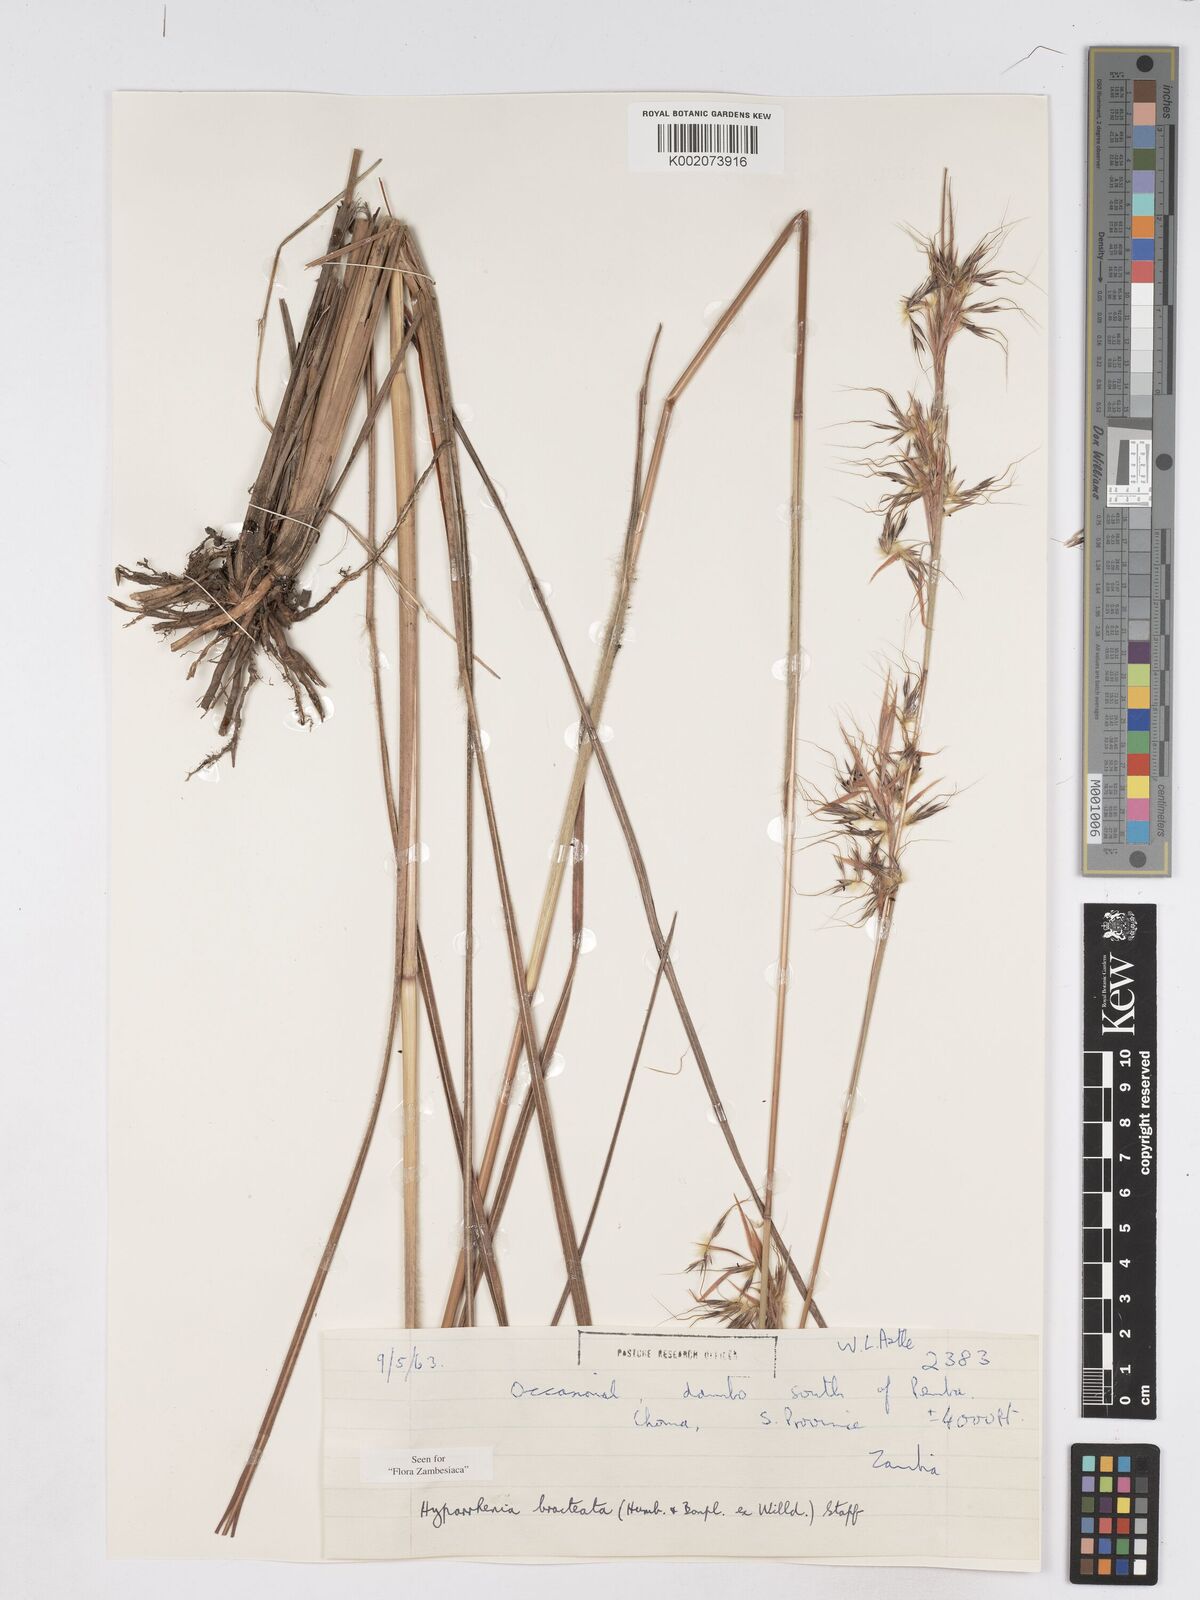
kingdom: Plantae
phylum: Tracheophyta
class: Liliopsida
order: Poales
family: Poaceae
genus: Hyparrhenia
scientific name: Hyparrhenia bracteata
